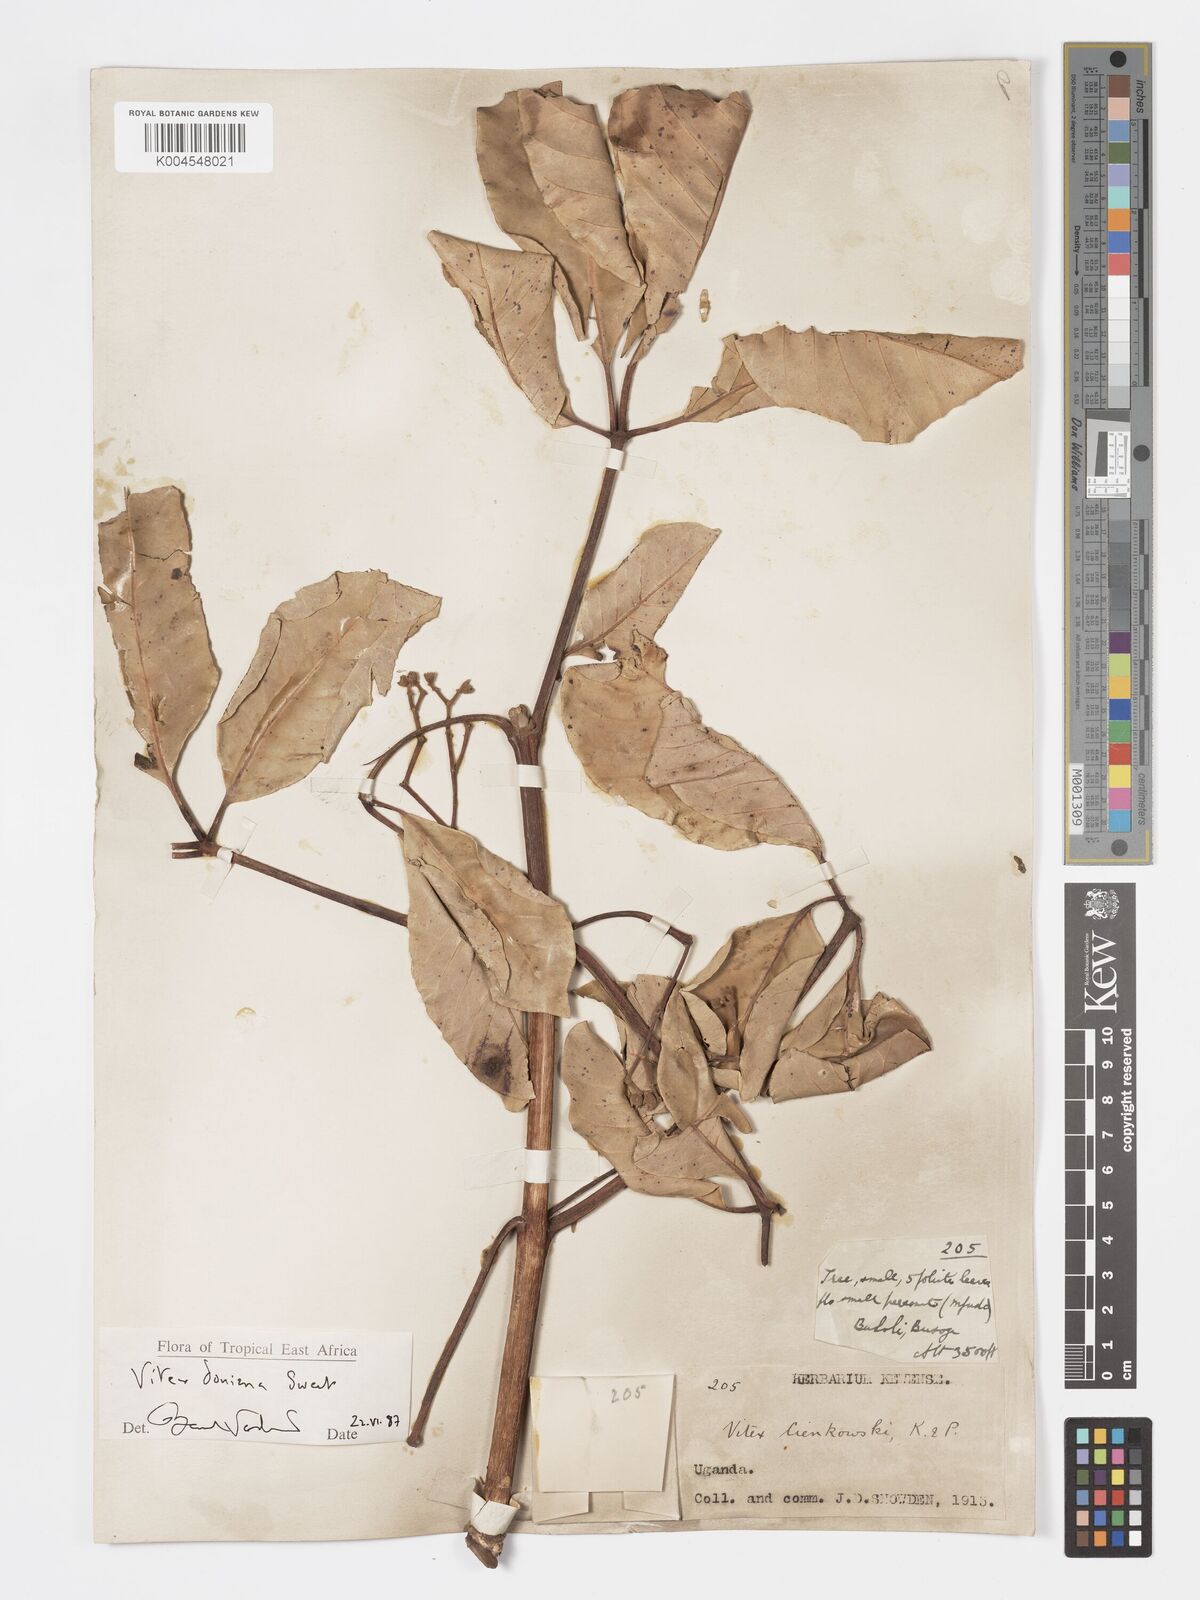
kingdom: Plantae
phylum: Tracheophyta
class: Magnoliopsida
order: Lamiales
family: Lamiaceae
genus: Vitex
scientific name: Vitex doniana
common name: Black plum
